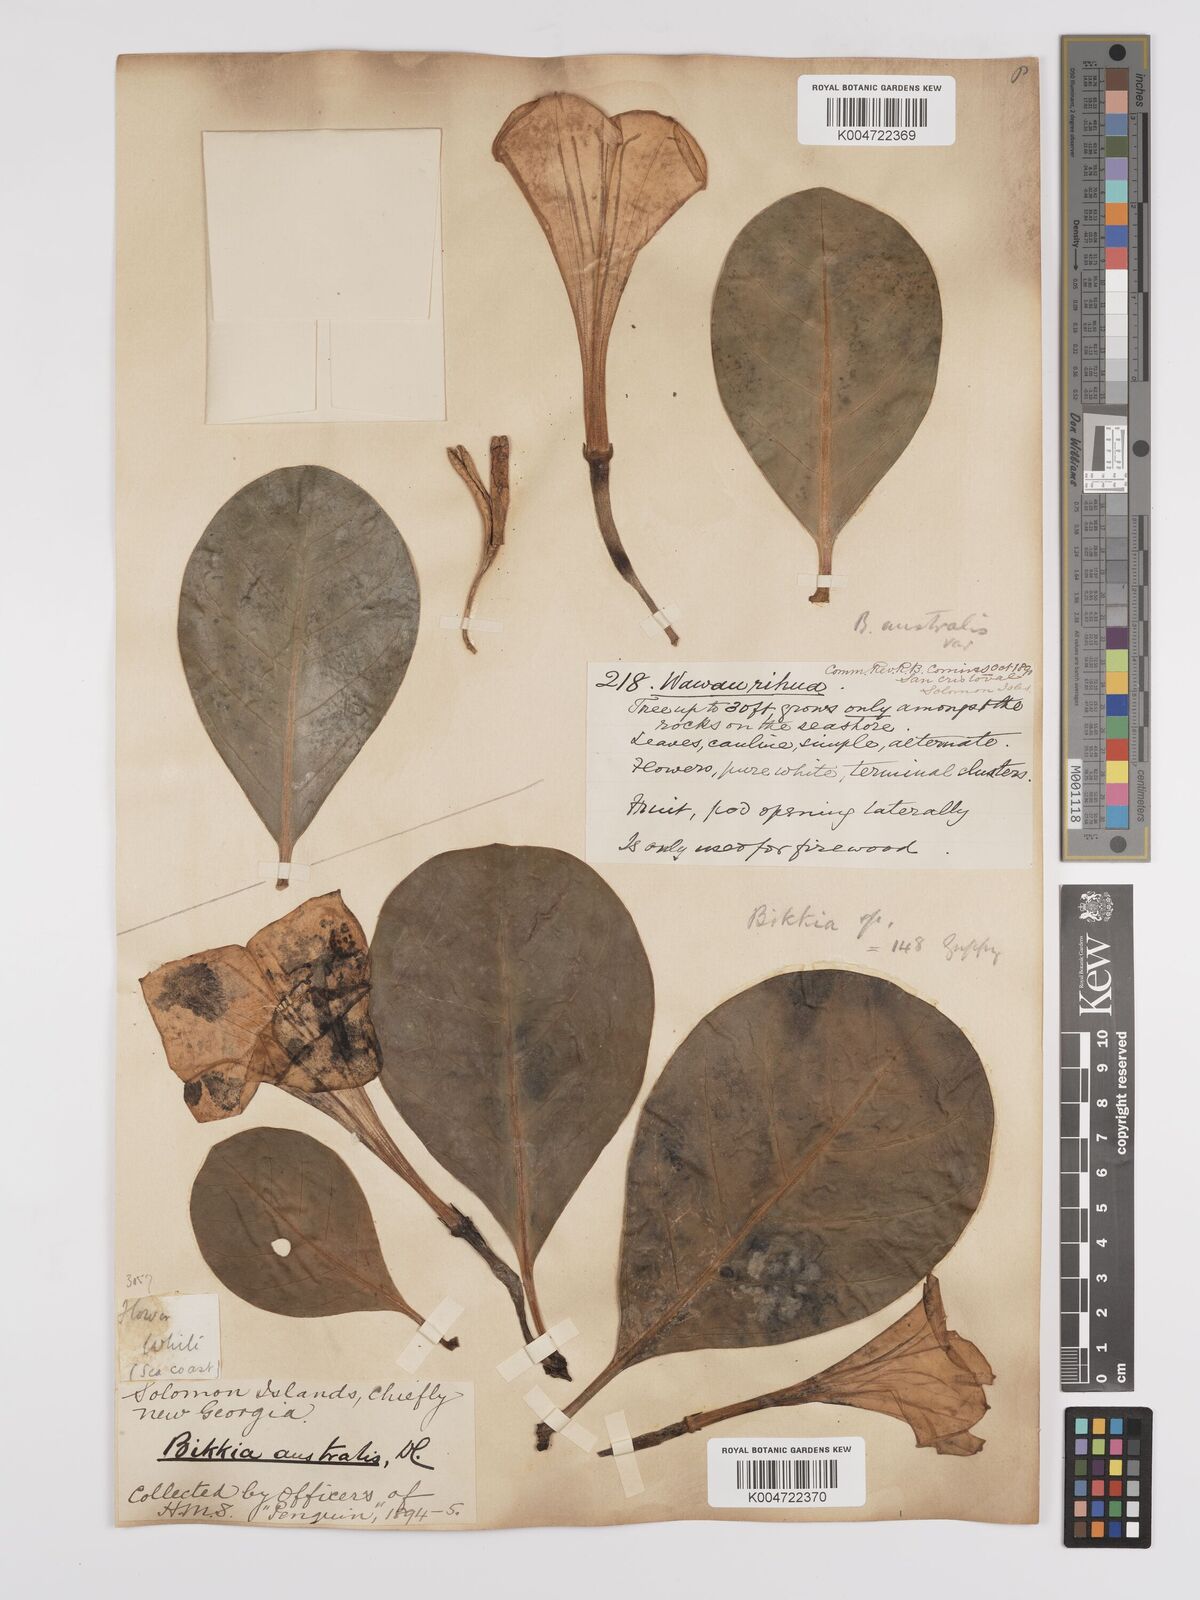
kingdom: Plantae
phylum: Tracheophyta
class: Magnoliopsida
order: Gentianales
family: Rubiaceae
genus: Bikkia
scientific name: Bikkia
